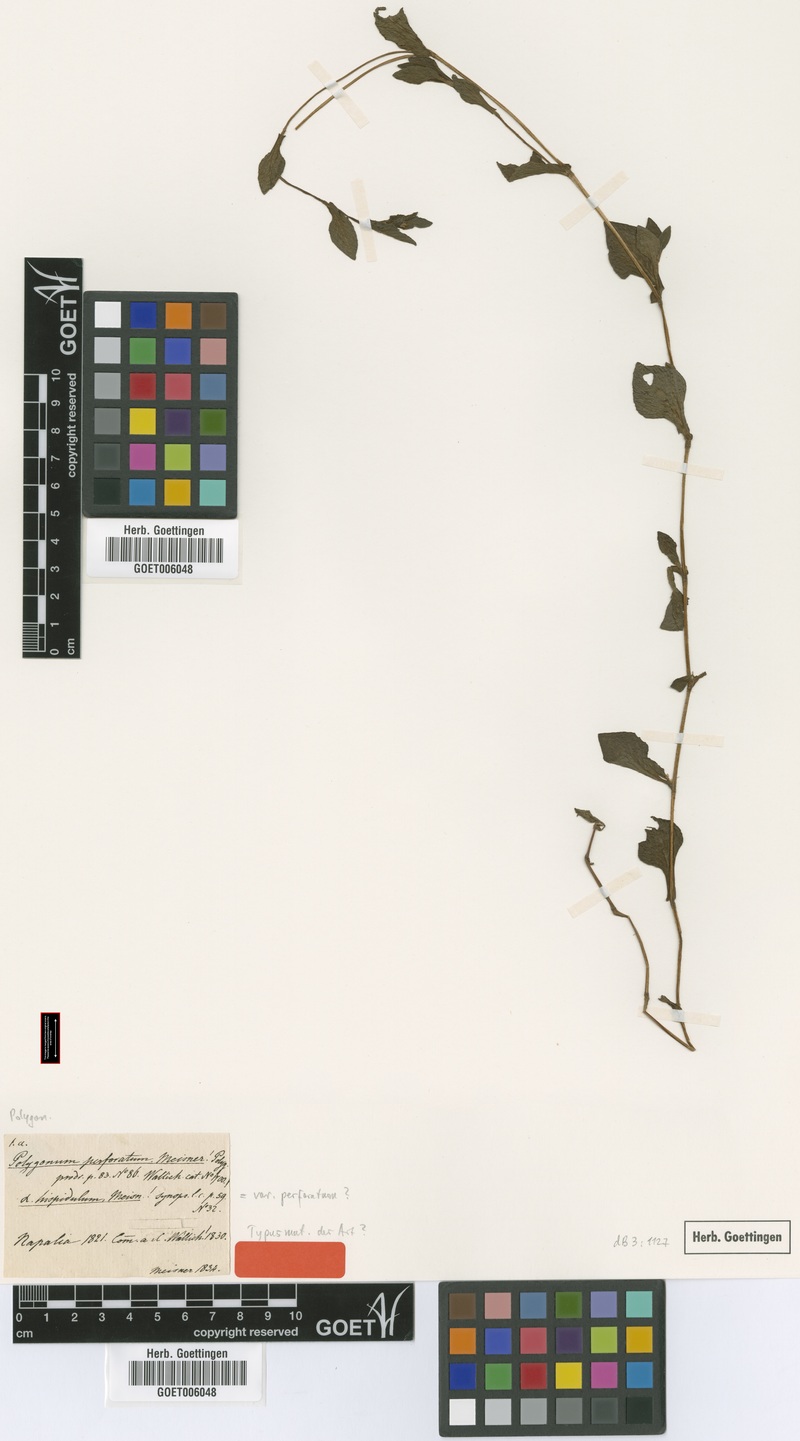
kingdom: Plantae
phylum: Tracheophyta
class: Magnoliopsida
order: Caryophyllales
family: Polygonaceae
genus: Persicaria
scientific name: Persicaria nepalensis
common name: Nepal persicaria
